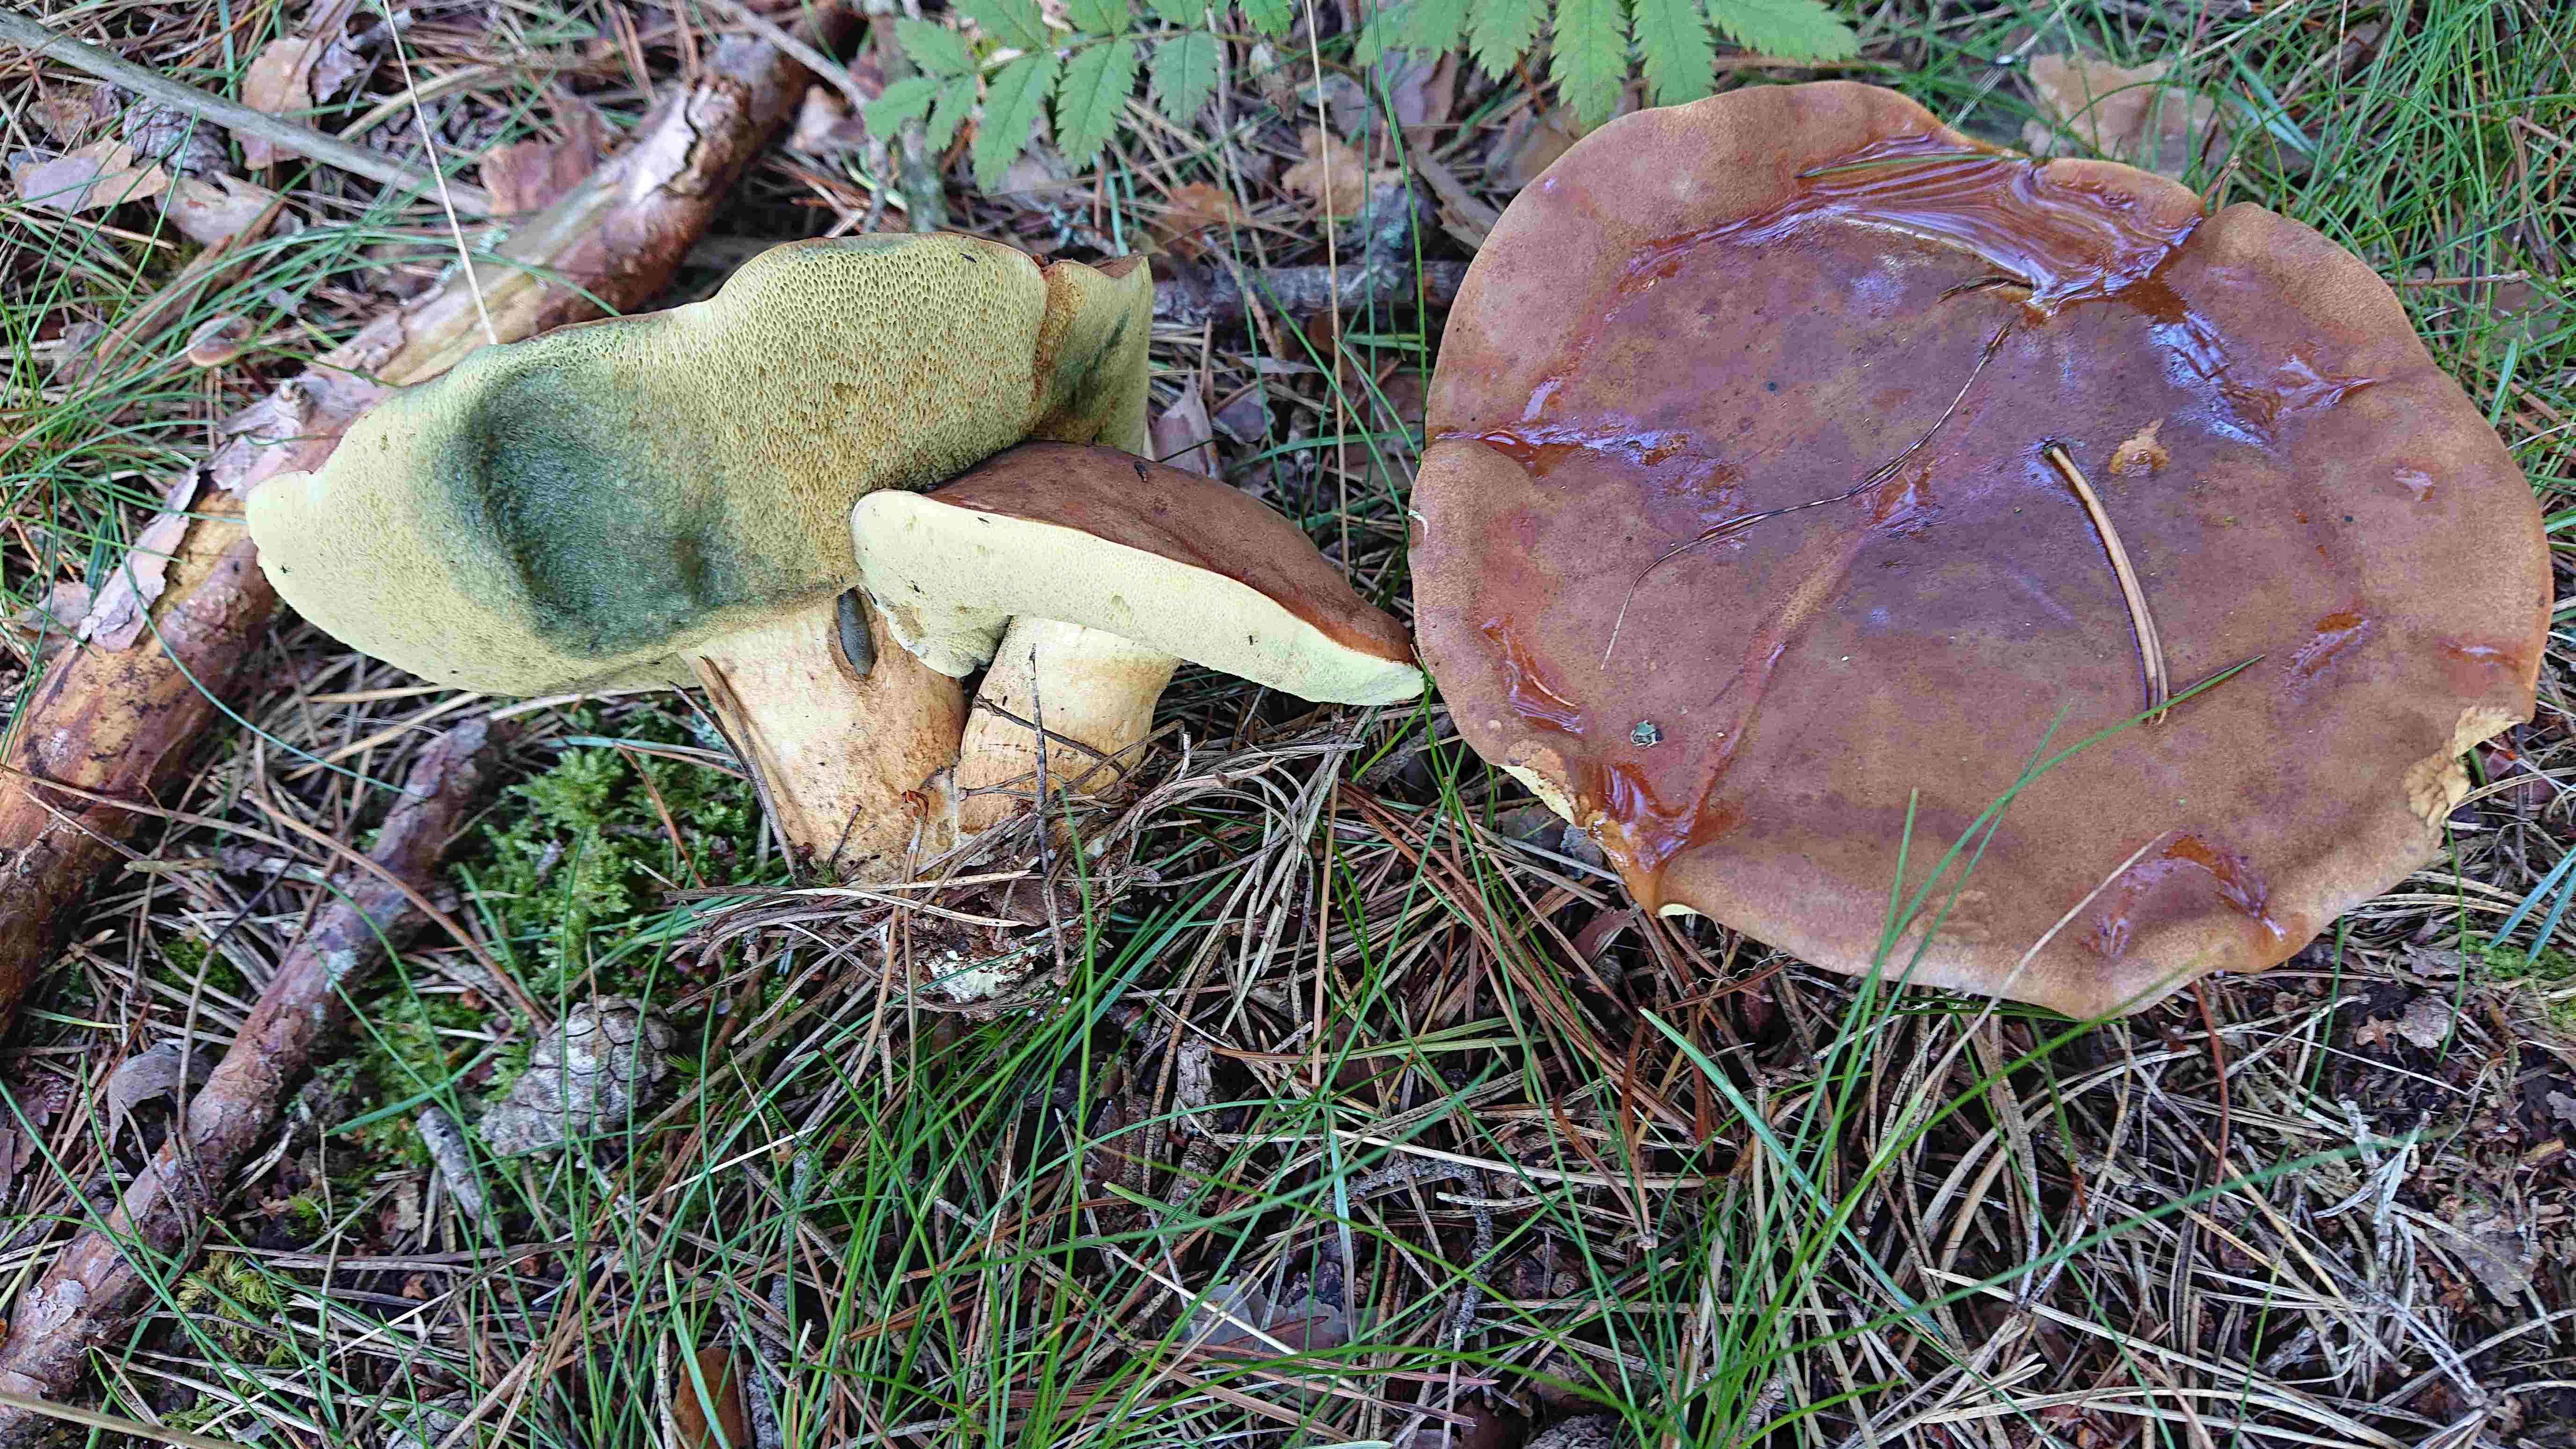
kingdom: Fungi
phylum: Basidiomycota
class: Agaricomycetes
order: Boletales
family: Boletaceae
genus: Imleria
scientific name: Imleria badia
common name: brunstokket rørhat
